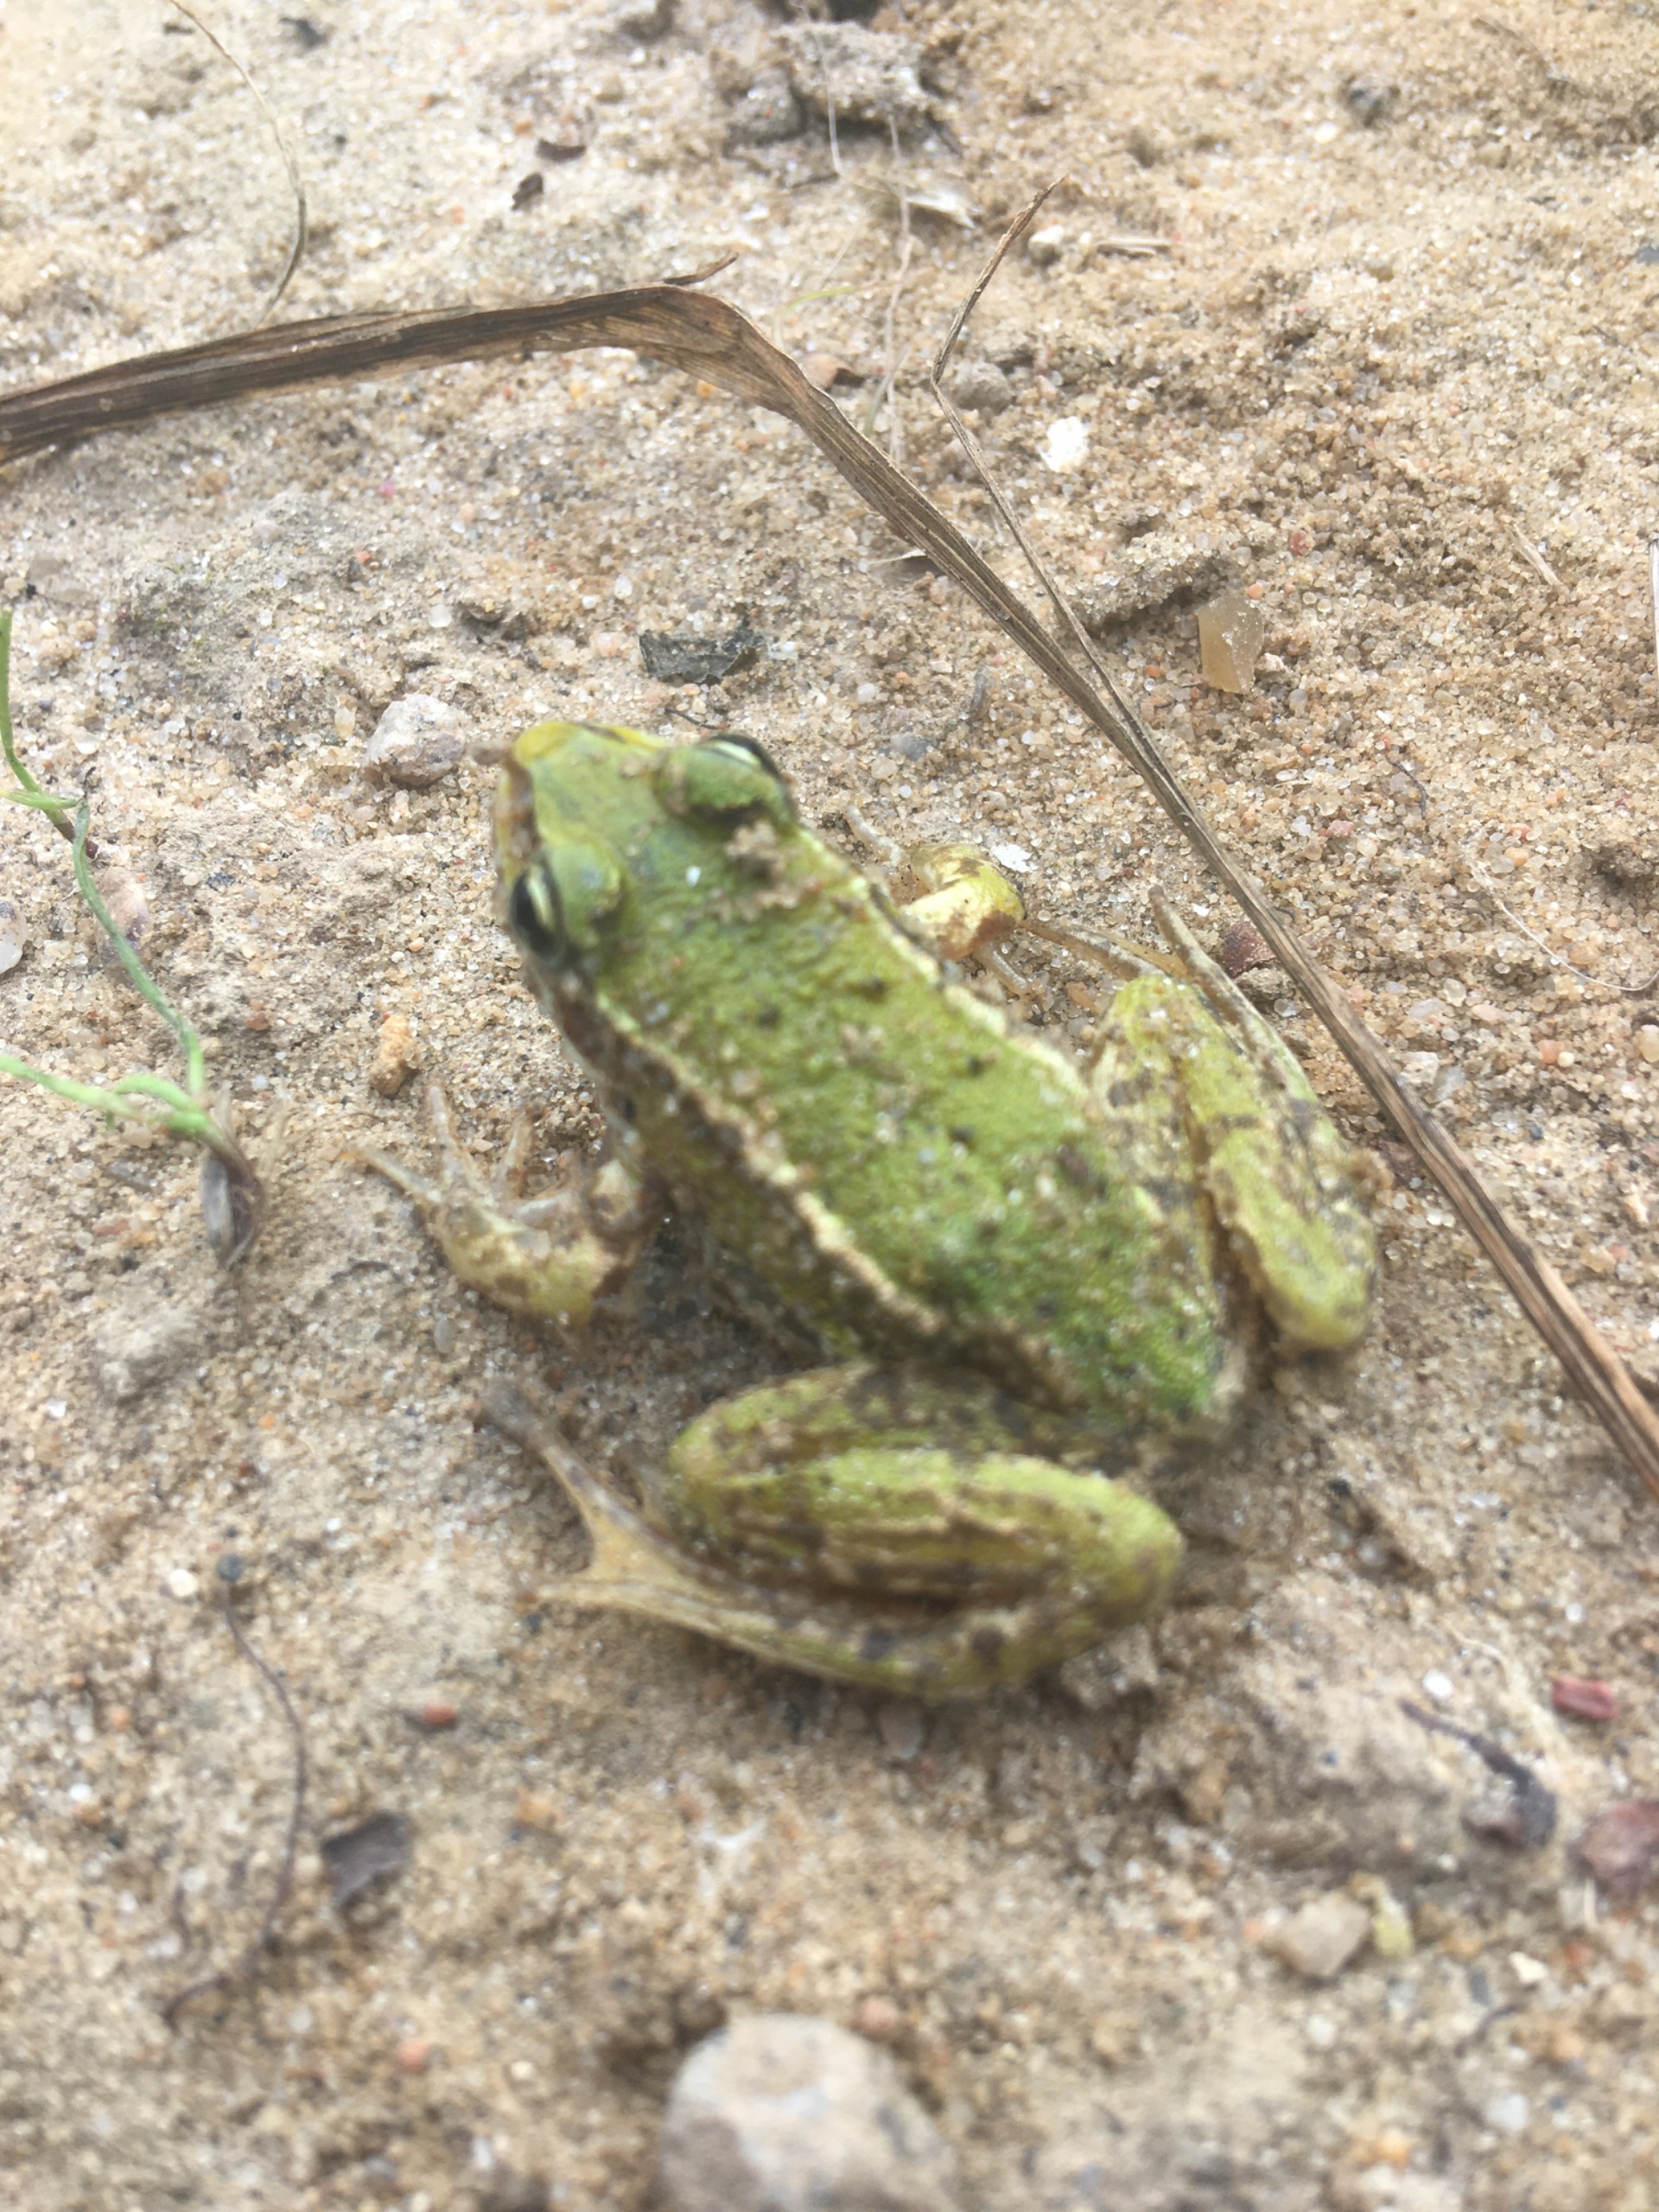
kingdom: Animalia
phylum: Chordata
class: Amphibia
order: Anura
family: Ranidae
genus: Pelophylax
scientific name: Pelophylax lessonae
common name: Grøn frø
